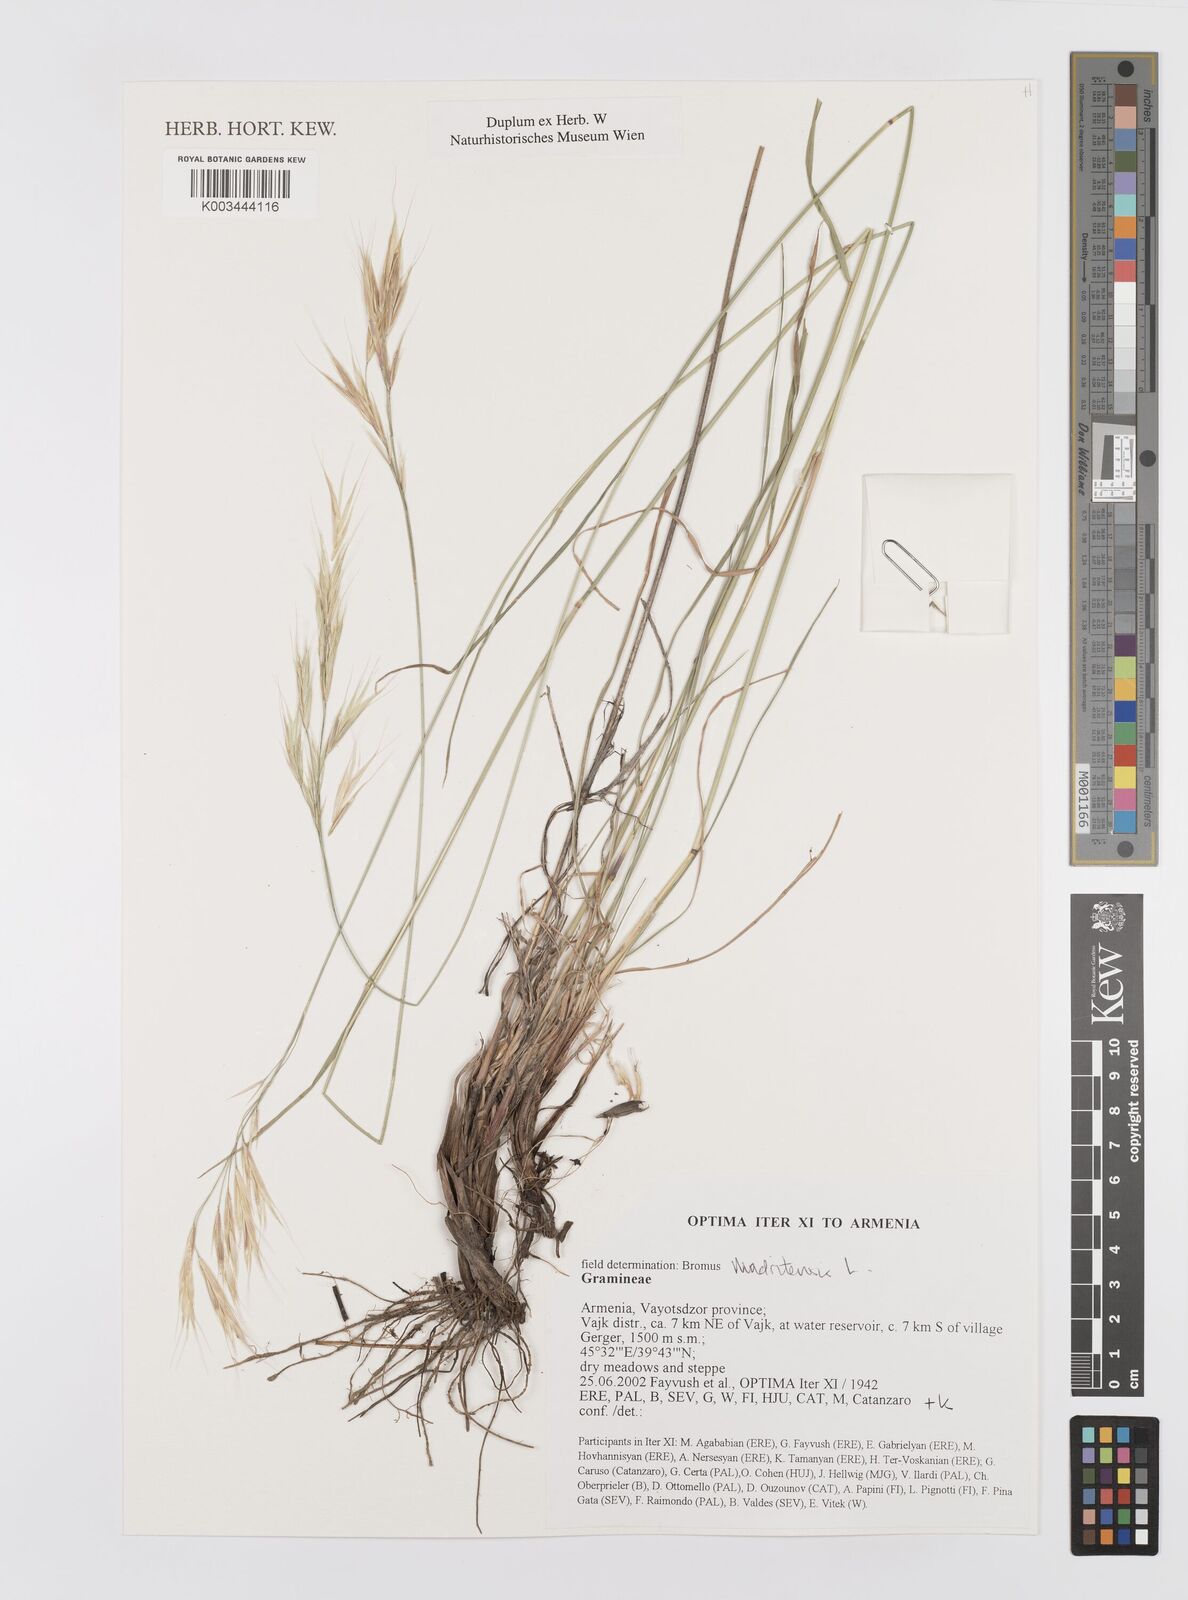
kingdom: Plantae
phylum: Tracheophyta
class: Liliopsida
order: Poales
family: Poaceae
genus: Bromus
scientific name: Bromus madritensis
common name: Compact brome
